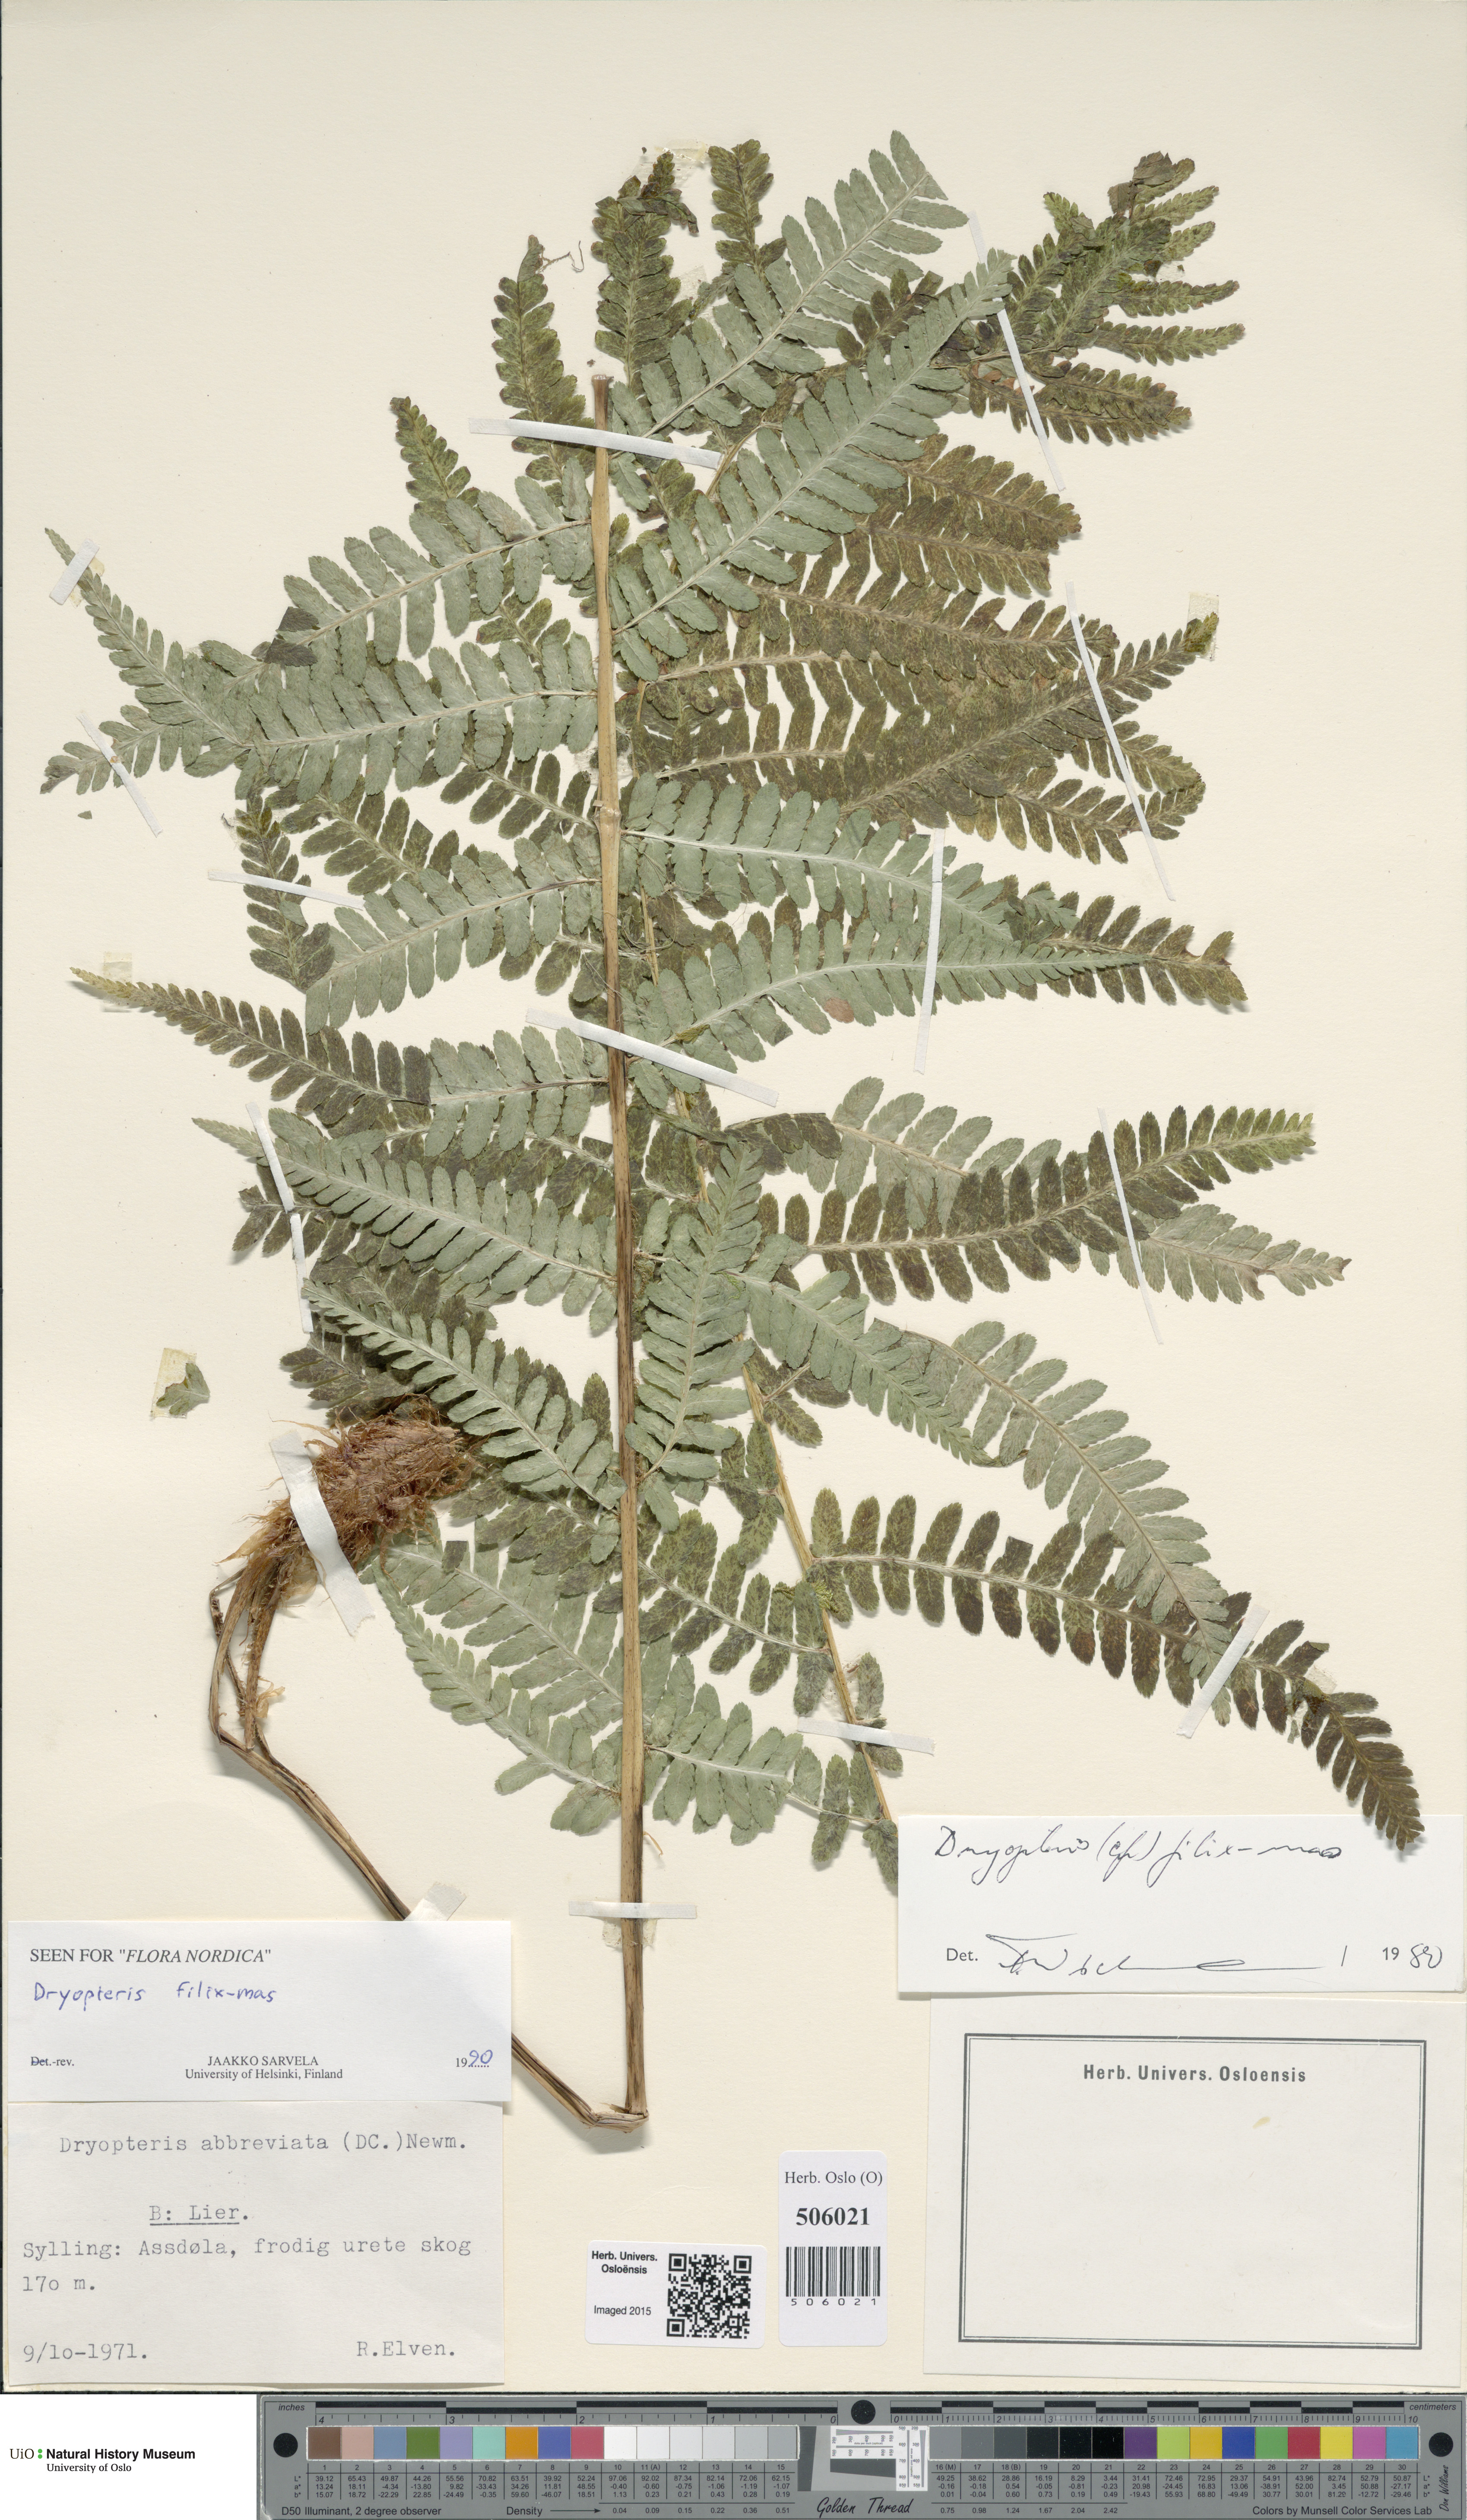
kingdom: Plantae
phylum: Tracheophyta
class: Polypodiopsida
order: Polypodiales
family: Dryopteridaceae
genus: Dryopteris
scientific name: Dryopteris filix-mas
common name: Male fern
